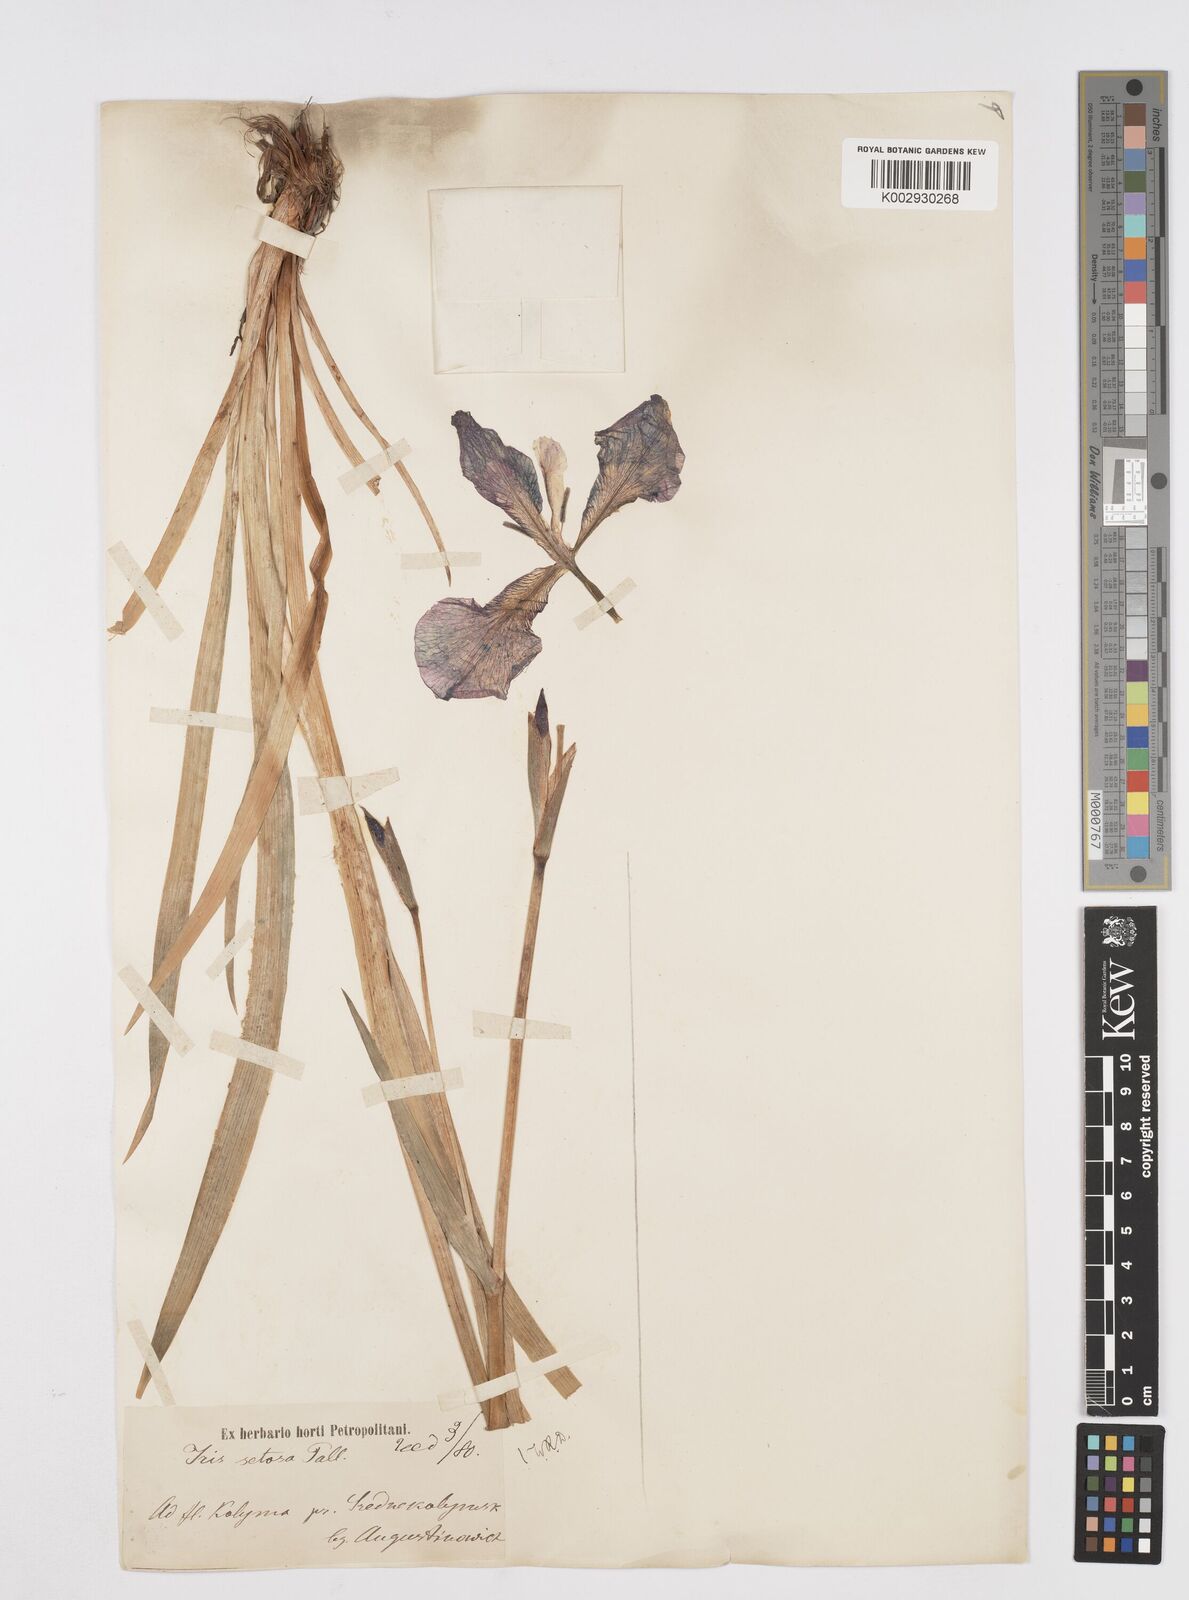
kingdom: Plantae
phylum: Tracheophyta
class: Liliopsida
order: Asparagales
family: Iridaceae
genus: Iris
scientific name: Iris setosa
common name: Arctic blue flag
